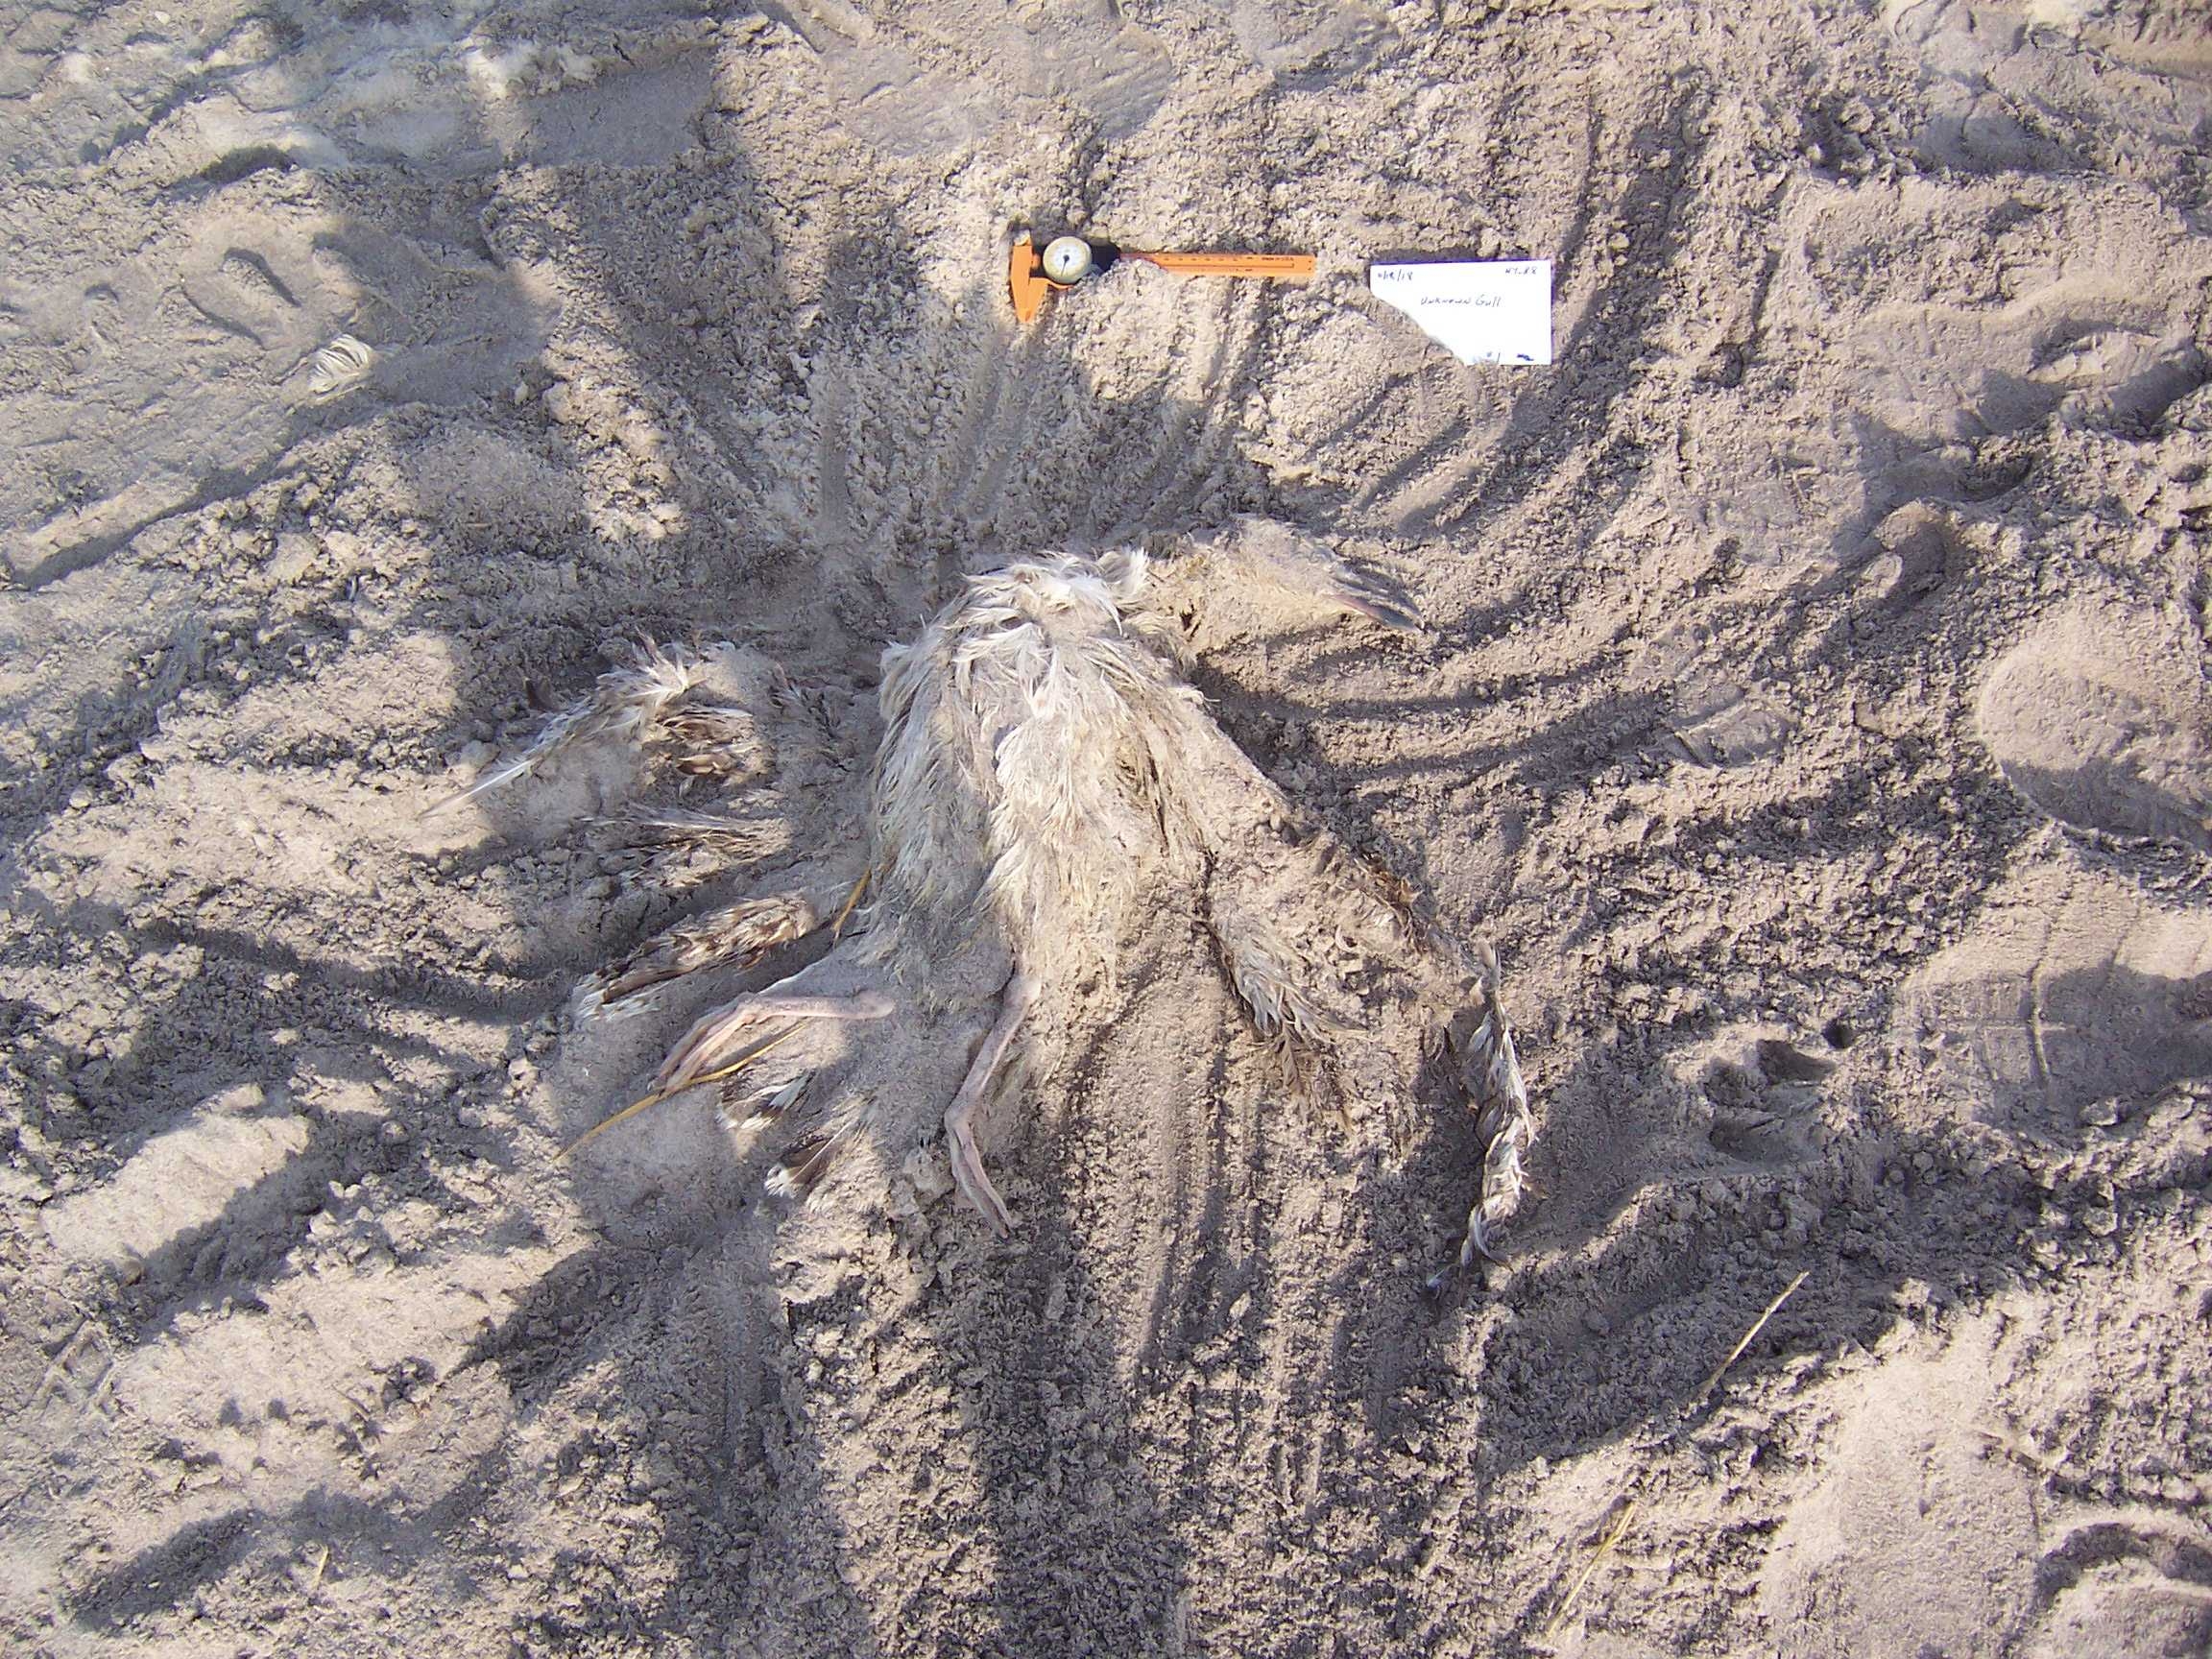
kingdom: Animalia
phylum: Chordata
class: Aves
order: Charadriiformes
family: Laridae
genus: Larus
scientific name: Larus marinus
